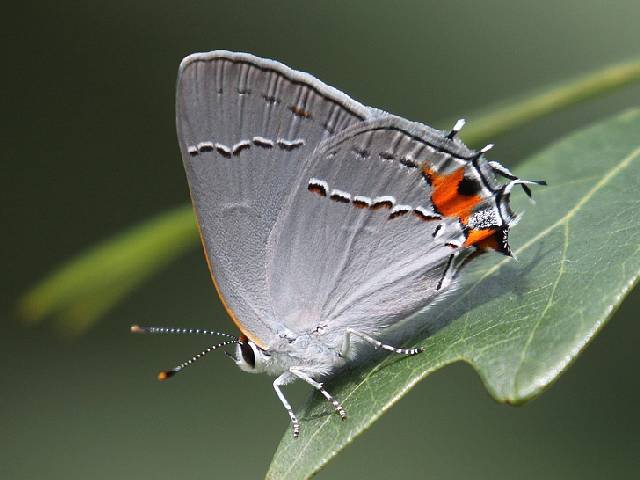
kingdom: Animalia
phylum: Arthropoda
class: Insecta
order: Lepidoptera
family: Lycaenidae
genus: Strymon
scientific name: Strymon melinus
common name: Gray Hairstreak
